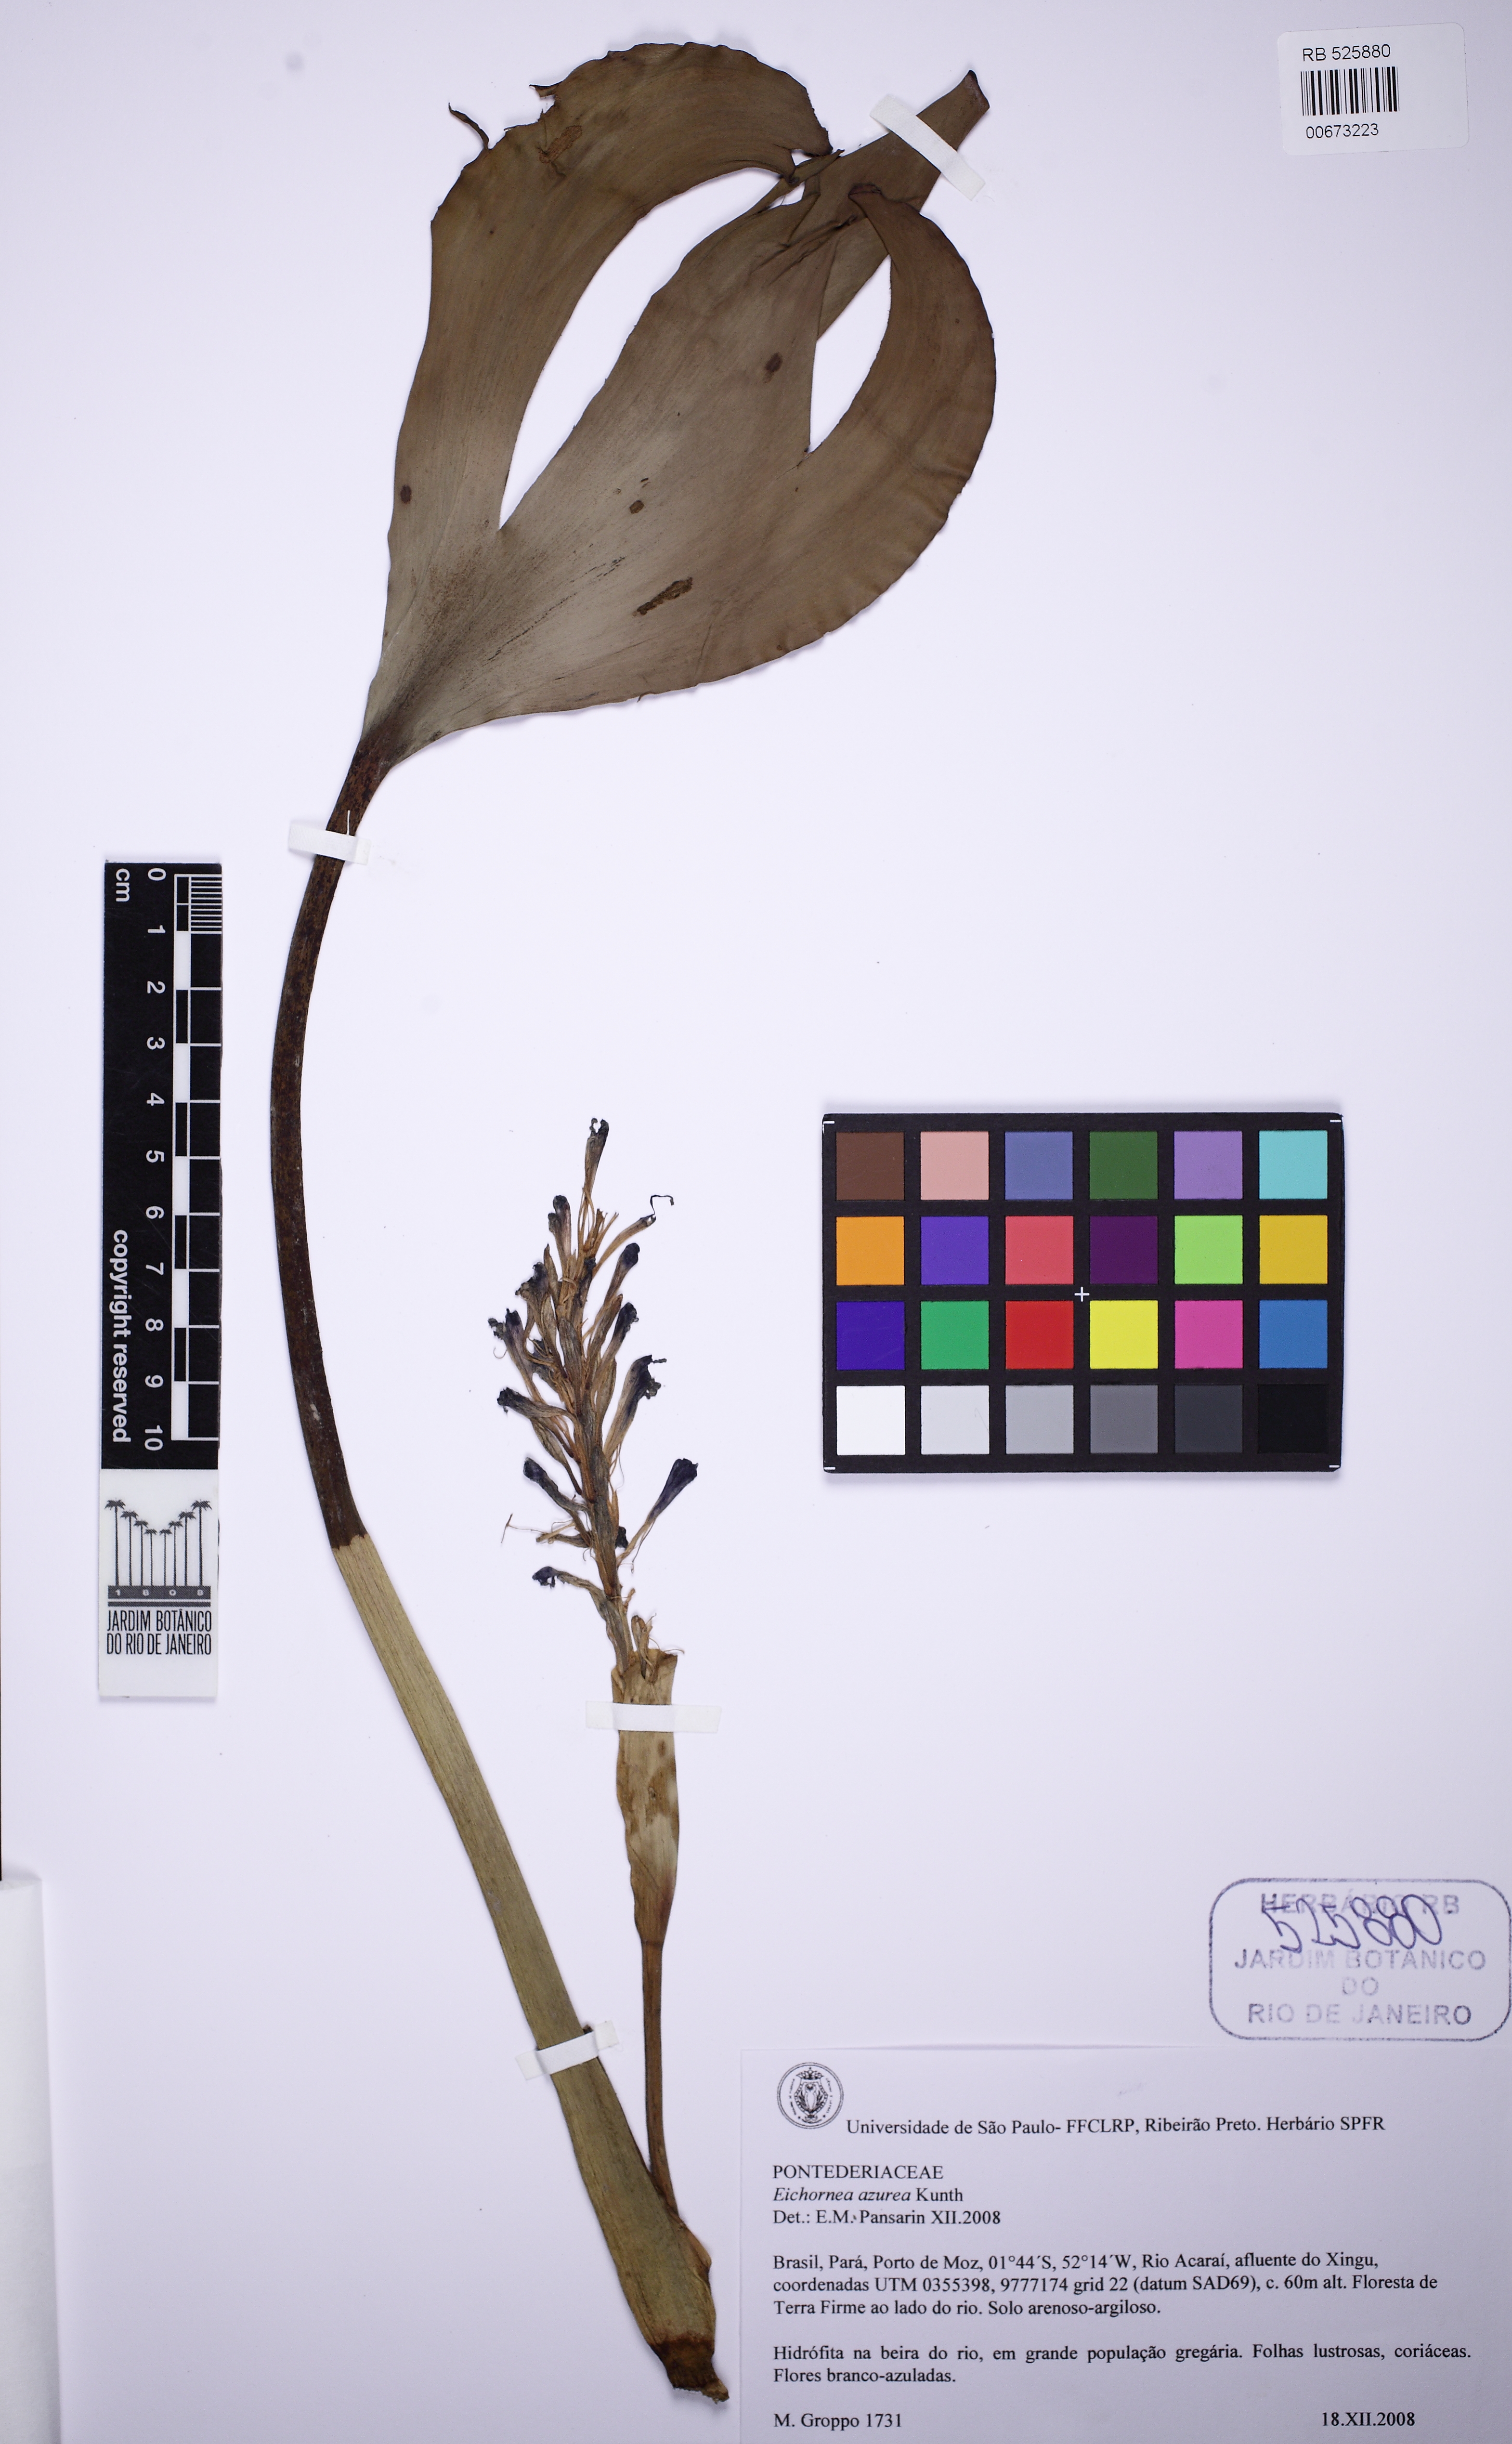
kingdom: Plantae
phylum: Tracheophyta
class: Liliopsida
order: Commelinales
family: Pontederiaceae
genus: Pontederia
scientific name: Pontederia azurea
